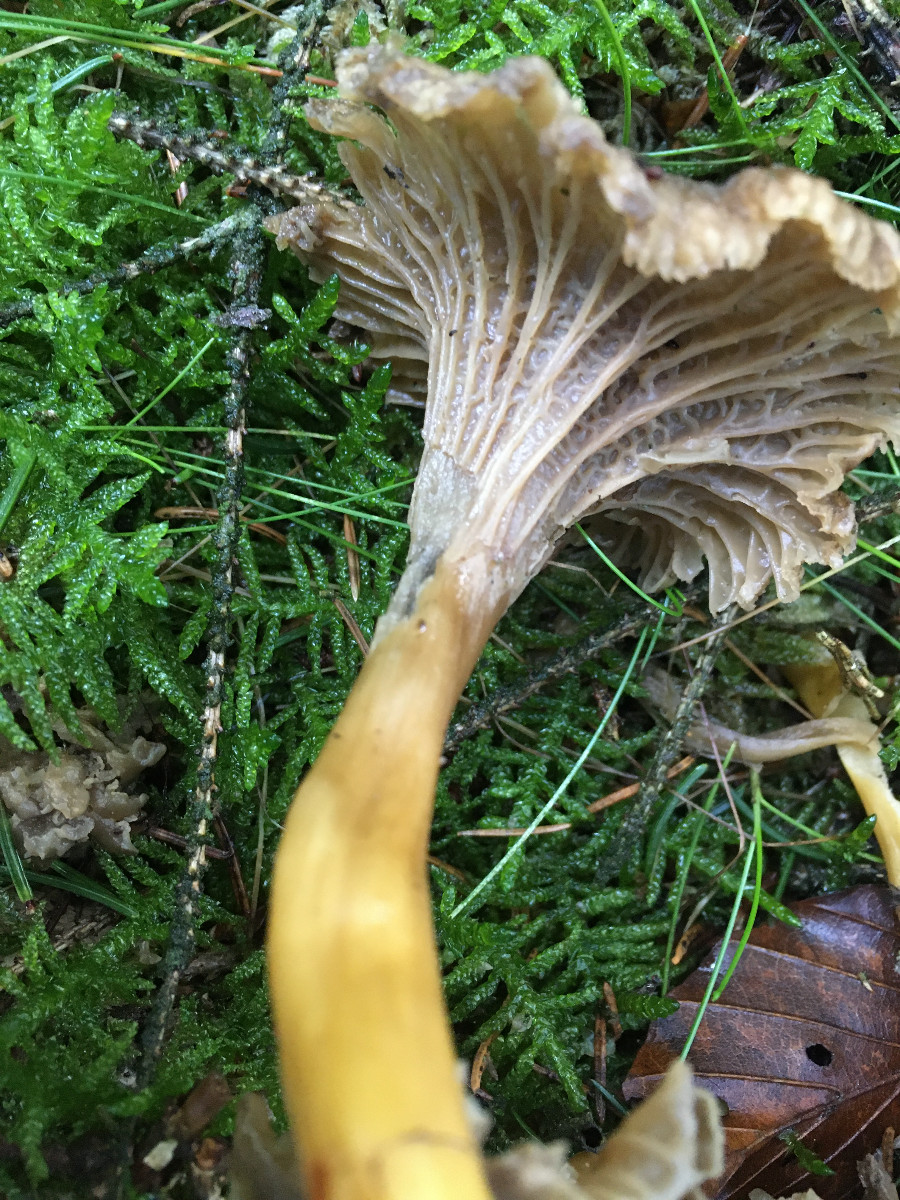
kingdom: Fungi
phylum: Basidiomycota
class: Agaricomycetes
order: Cantharellales
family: Hydnaceae
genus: Craterellus
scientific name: Craterellus tubaeformis
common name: tragt-kantarel
